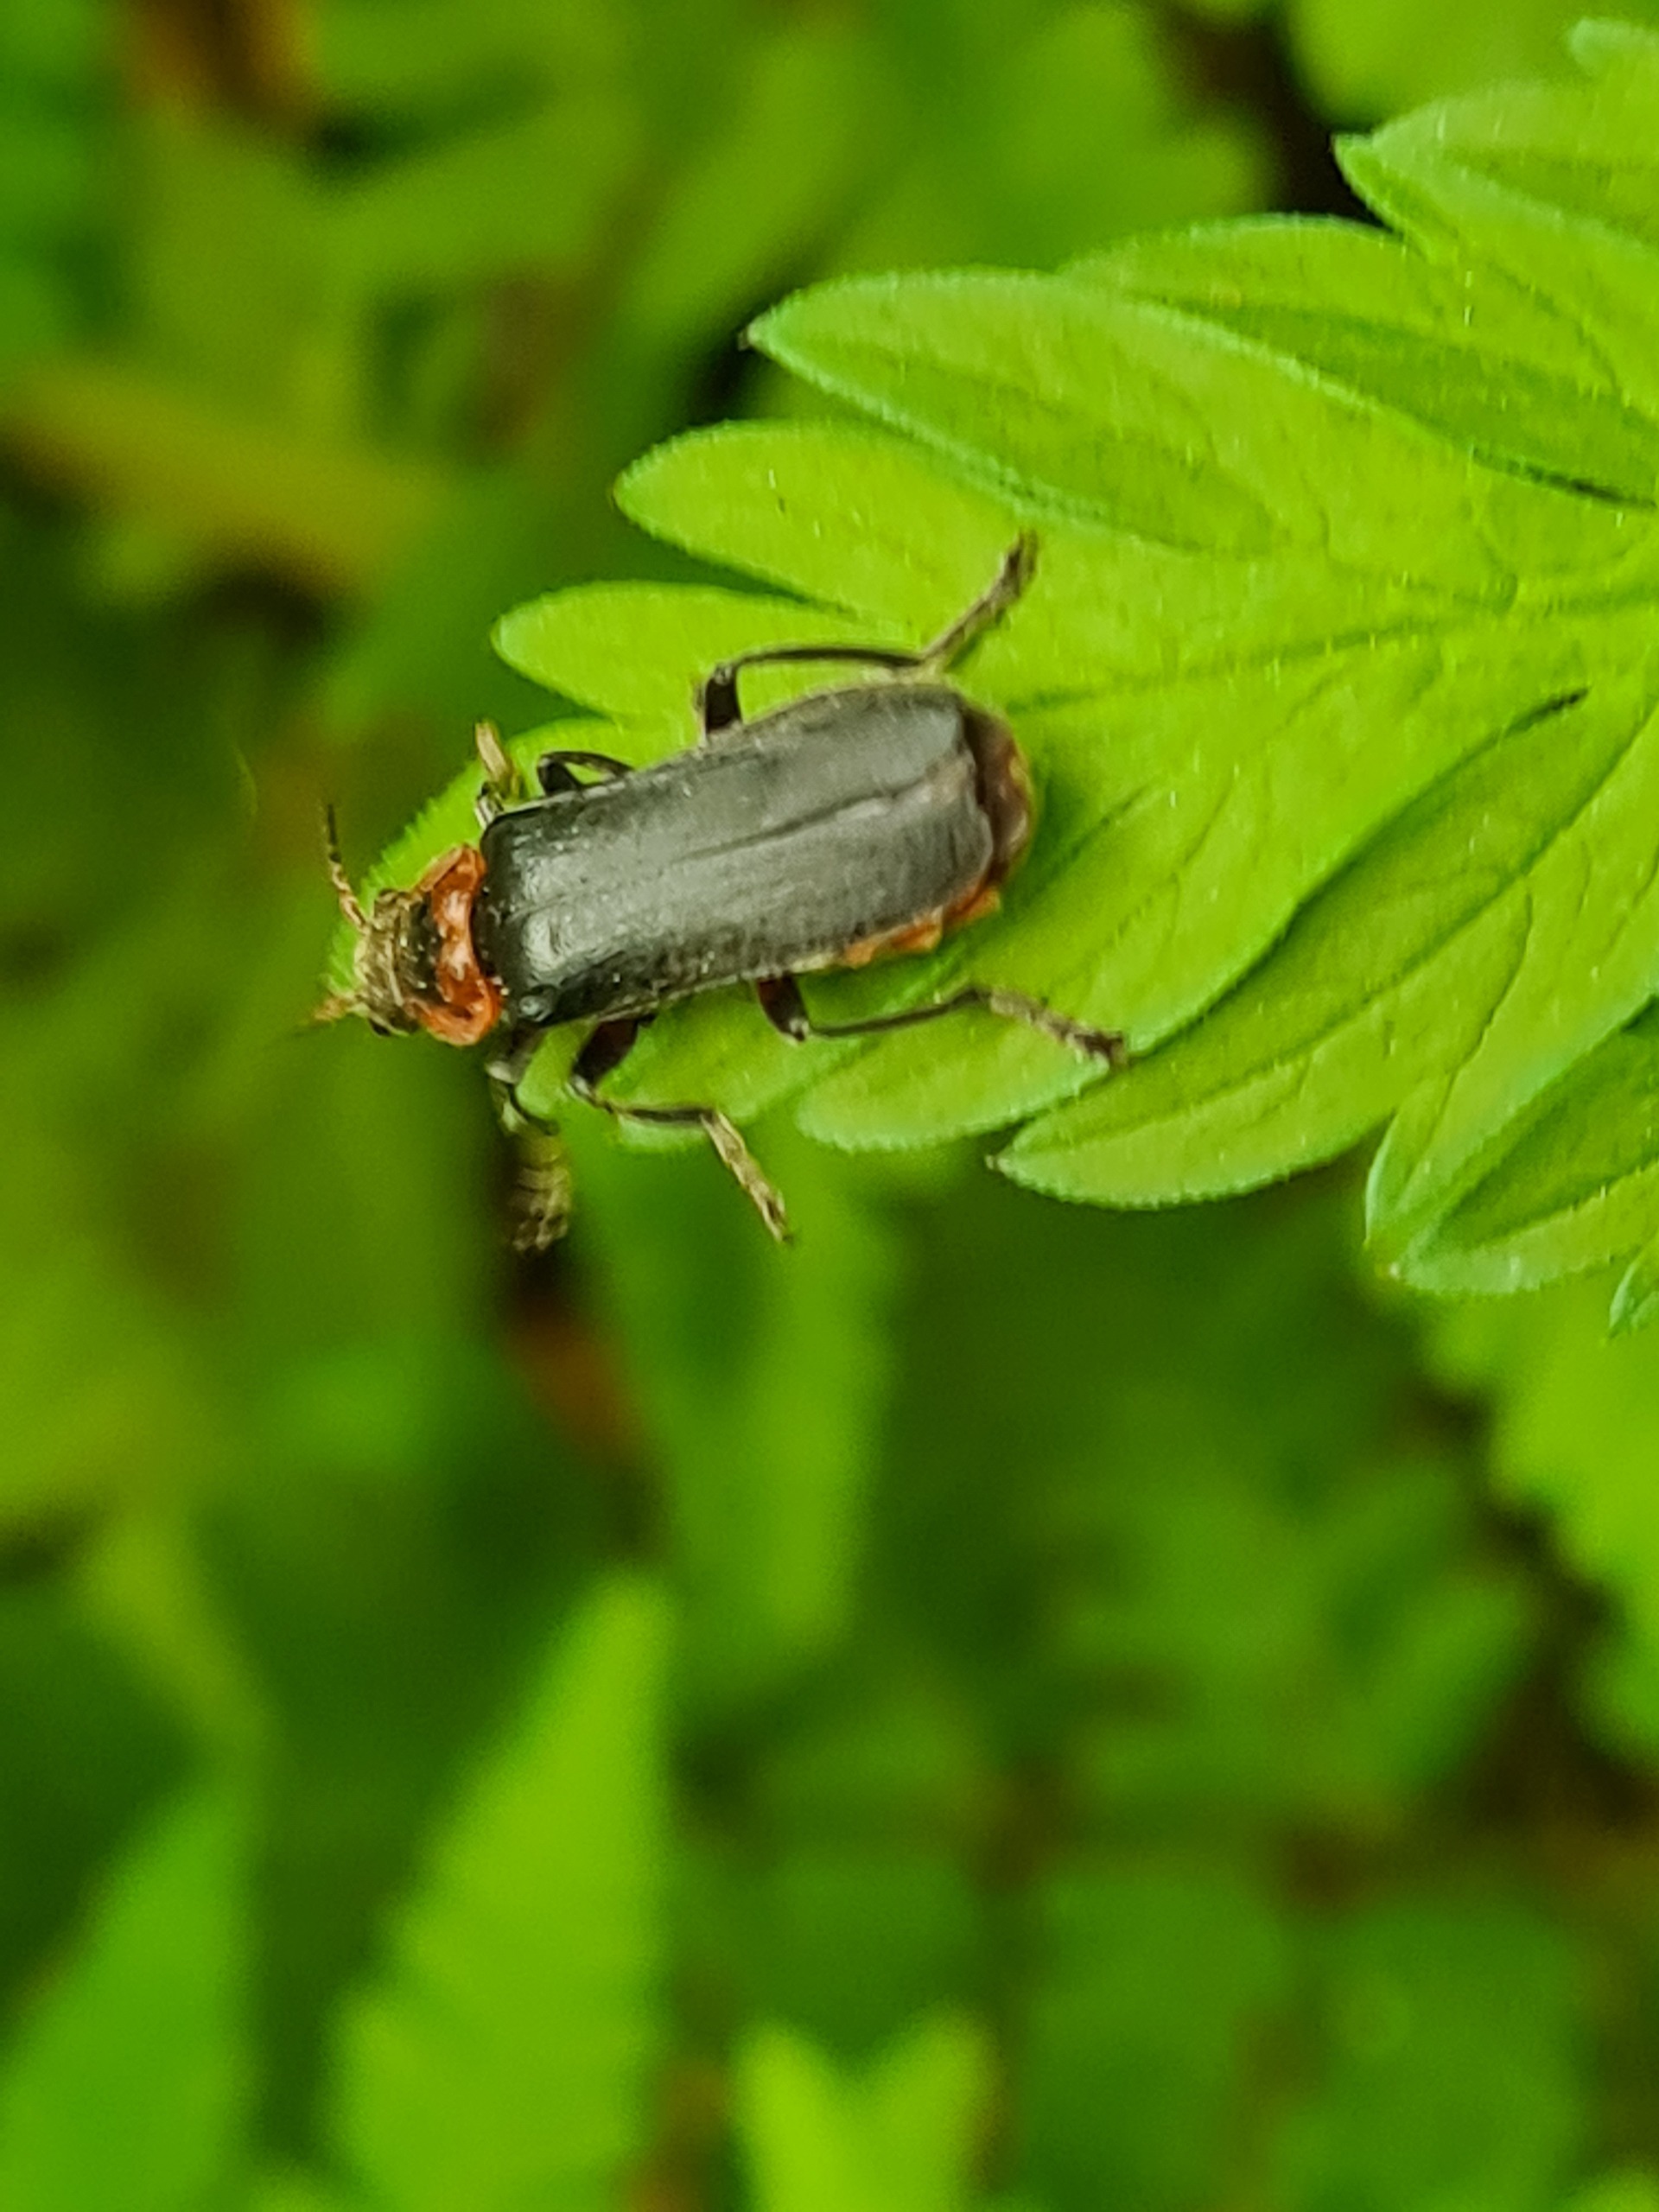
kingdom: Animalia
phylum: Arthropoda
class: Insecta
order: Coleoptera
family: Cantharidae
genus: Cantharis
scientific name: Cantharis fusca
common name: Stor blødvinge
